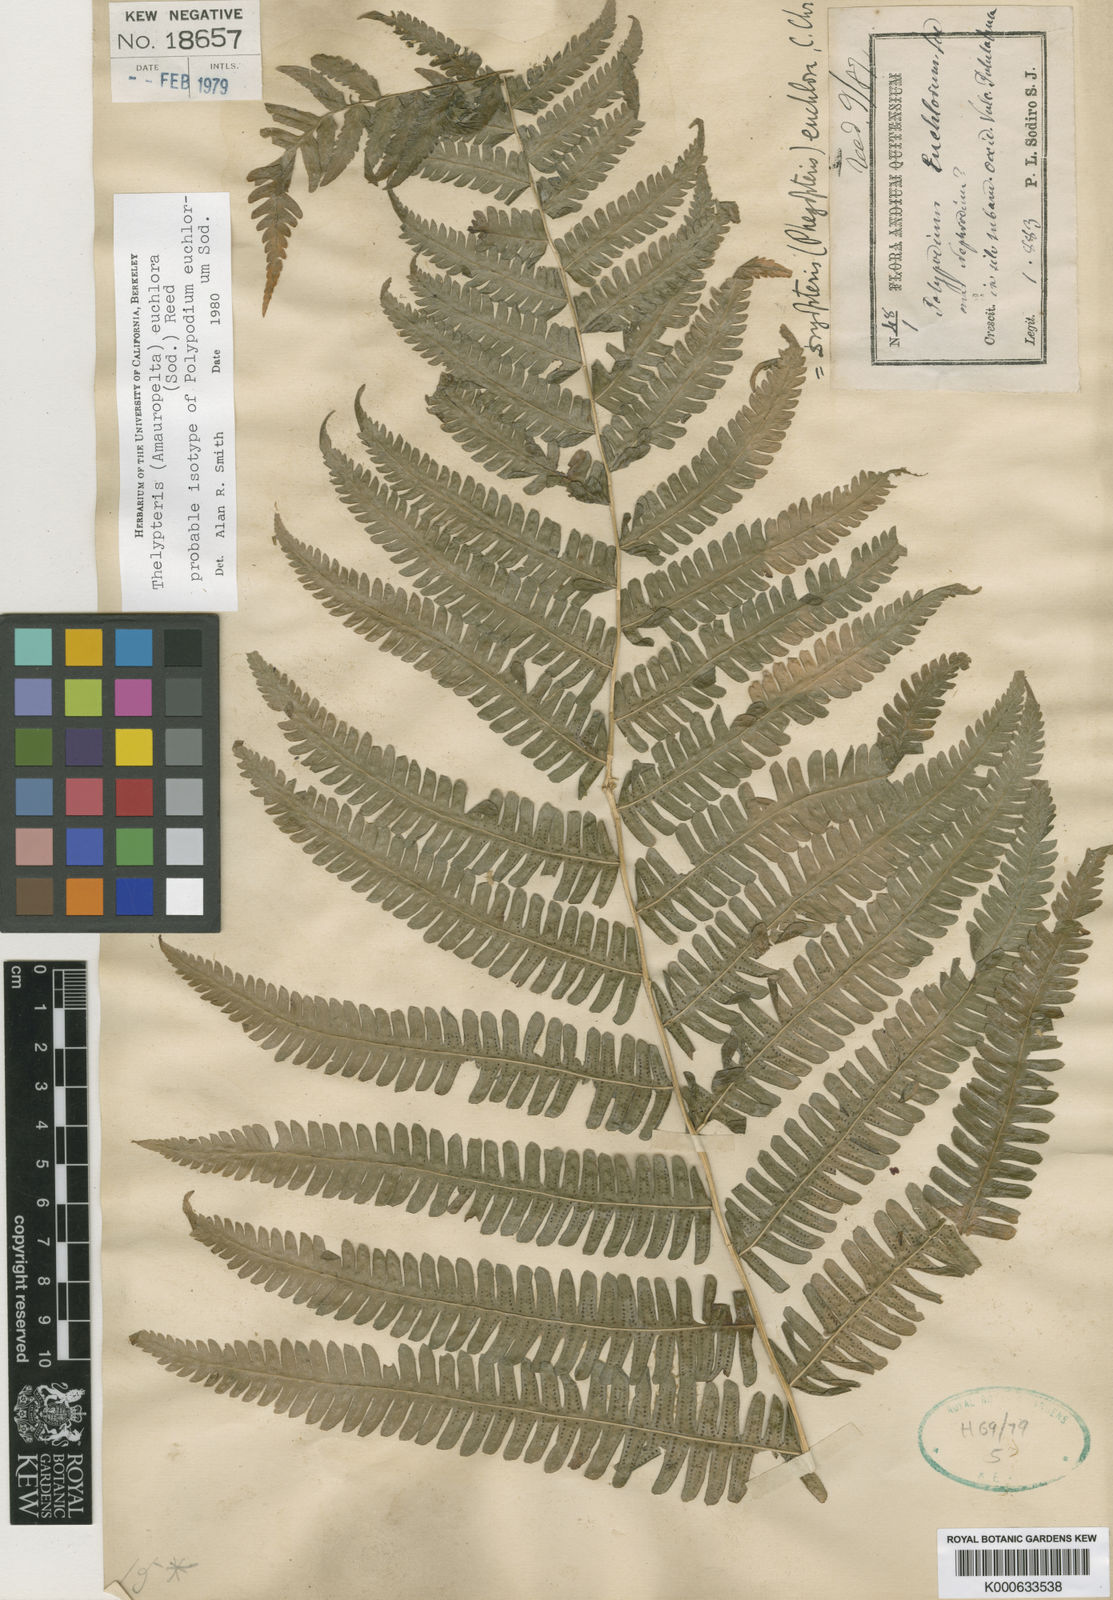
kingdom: Plantae
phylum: Tracheophyta
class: Polypodiopsida
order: Polypodiales
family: Thelypteridaceae
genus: Amauropelta
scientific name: Amauropelta euchlora
